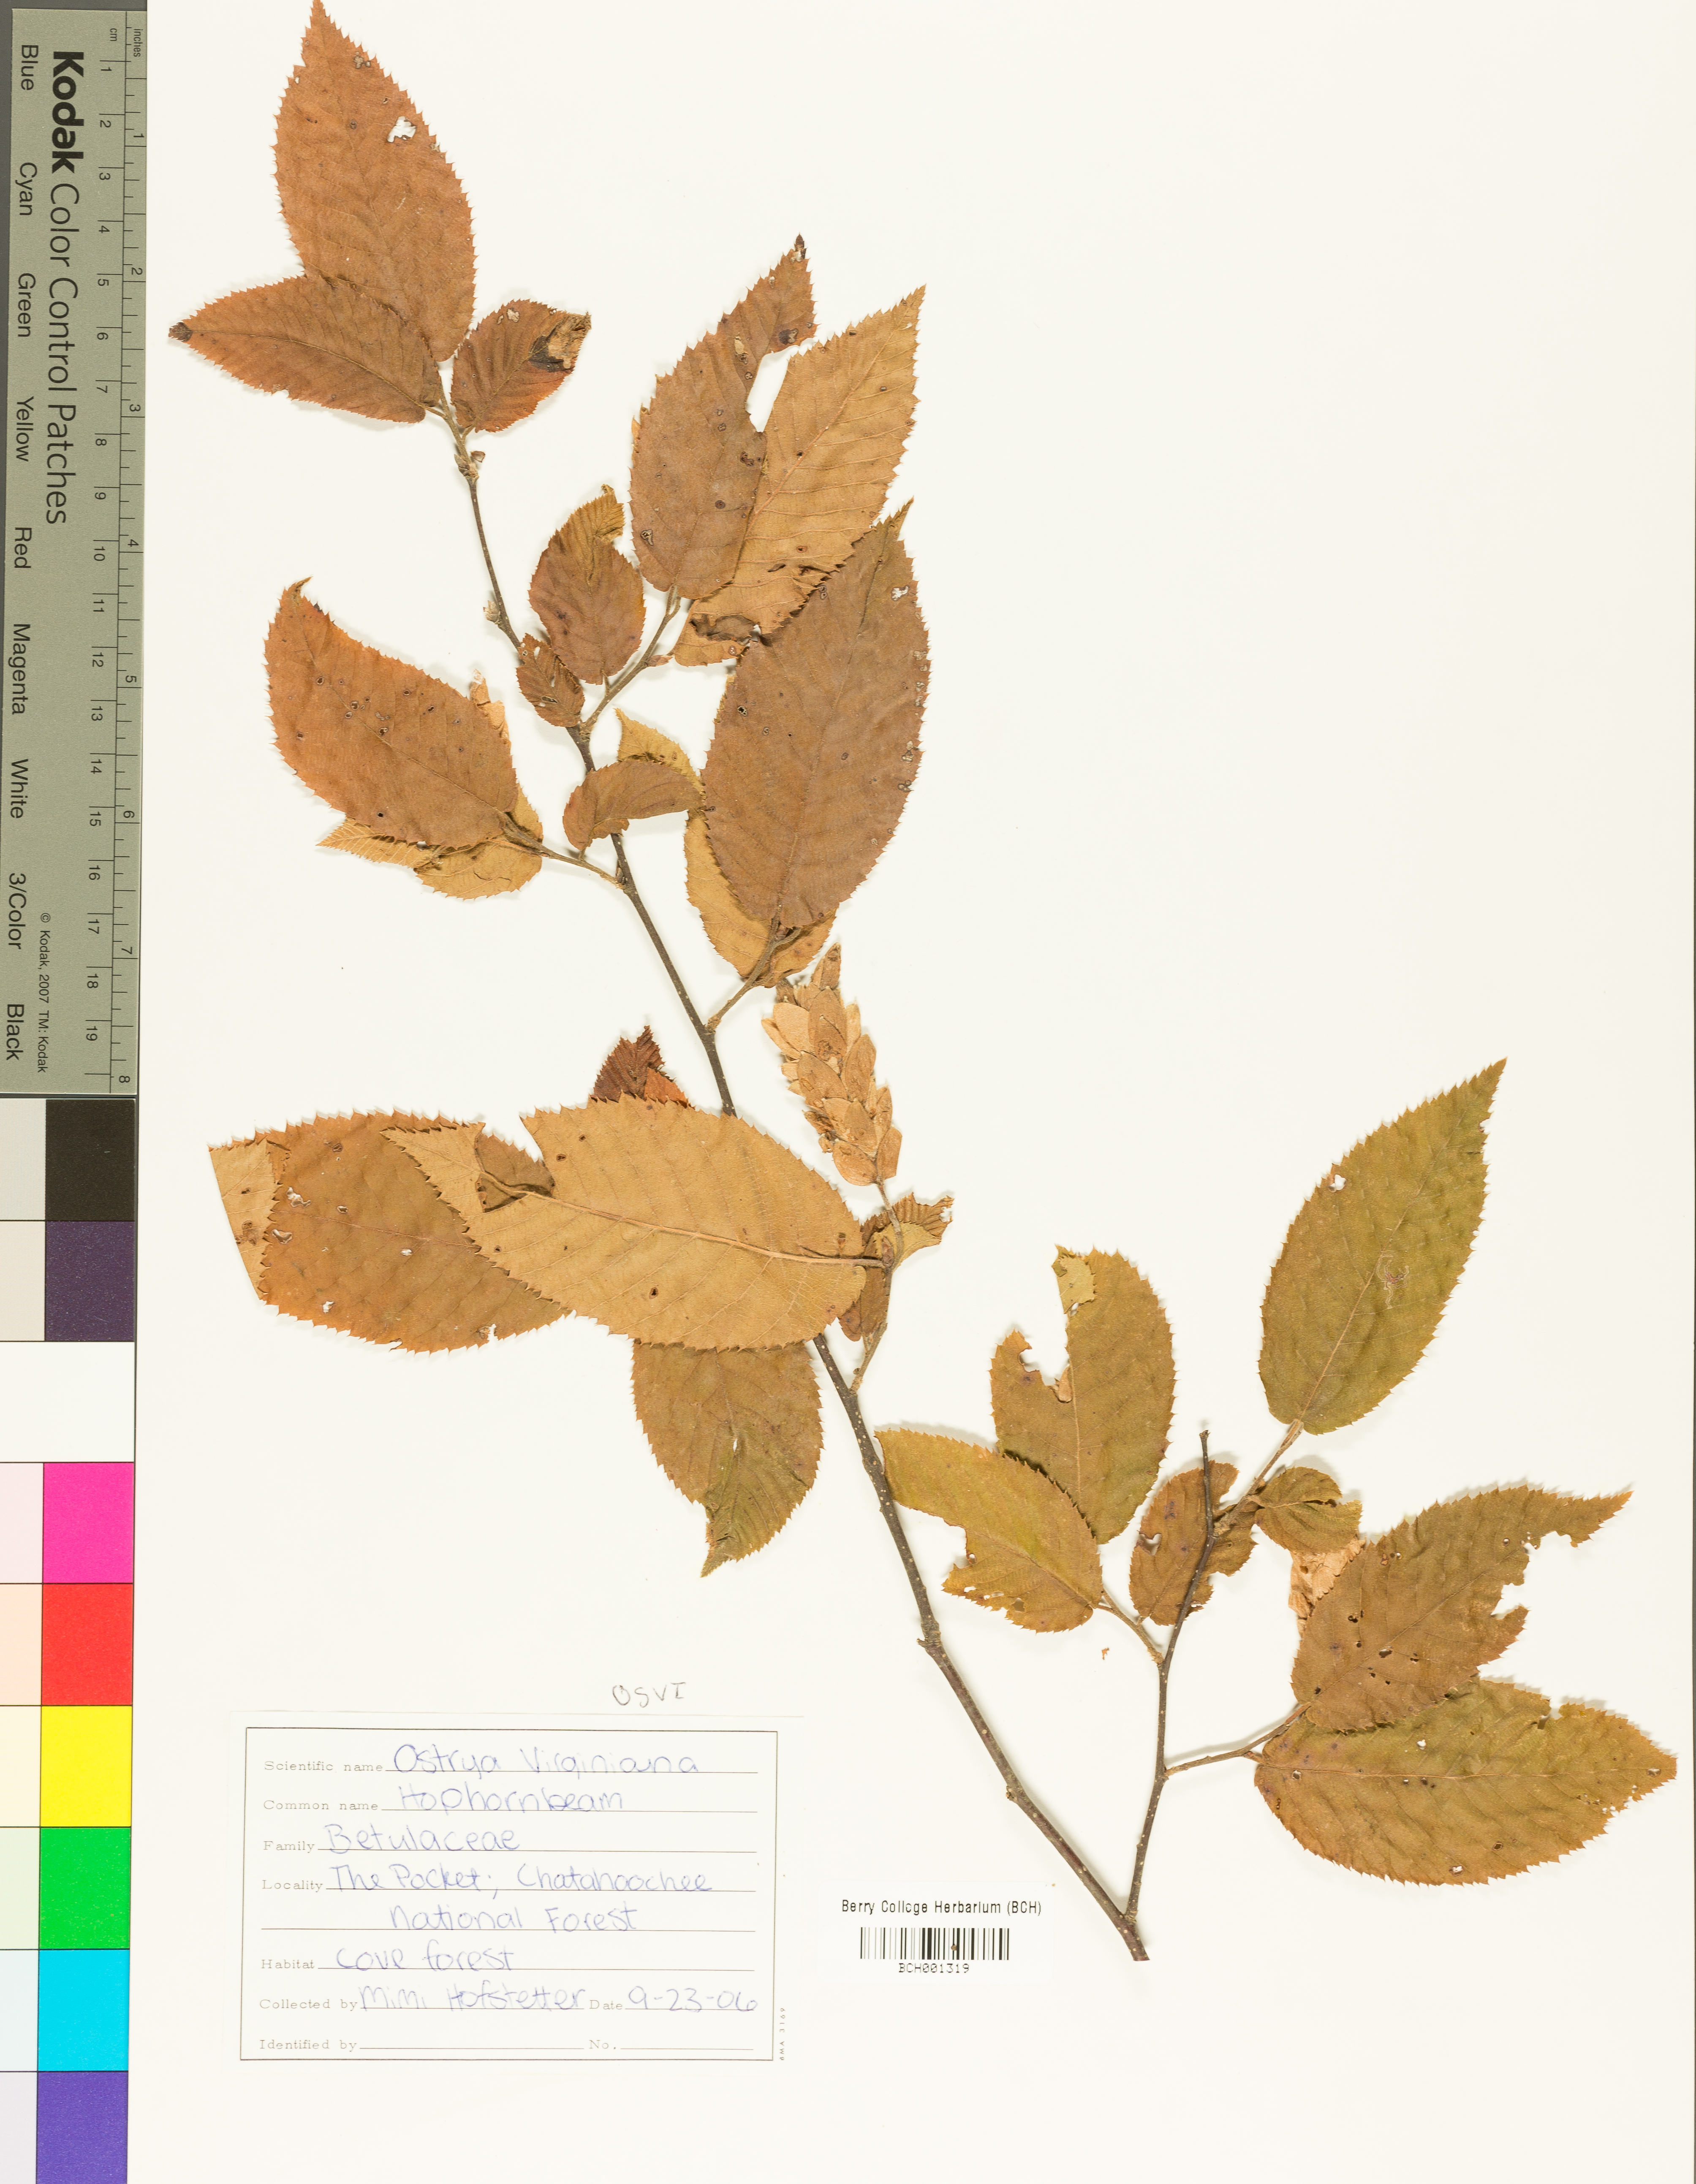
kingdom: Plantae
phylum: Tracheophyta
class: Magnoliopsida
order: Fagales
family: Betulaceae
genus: Ostrya
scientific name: Ostrya virginiana
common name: Ironwood
